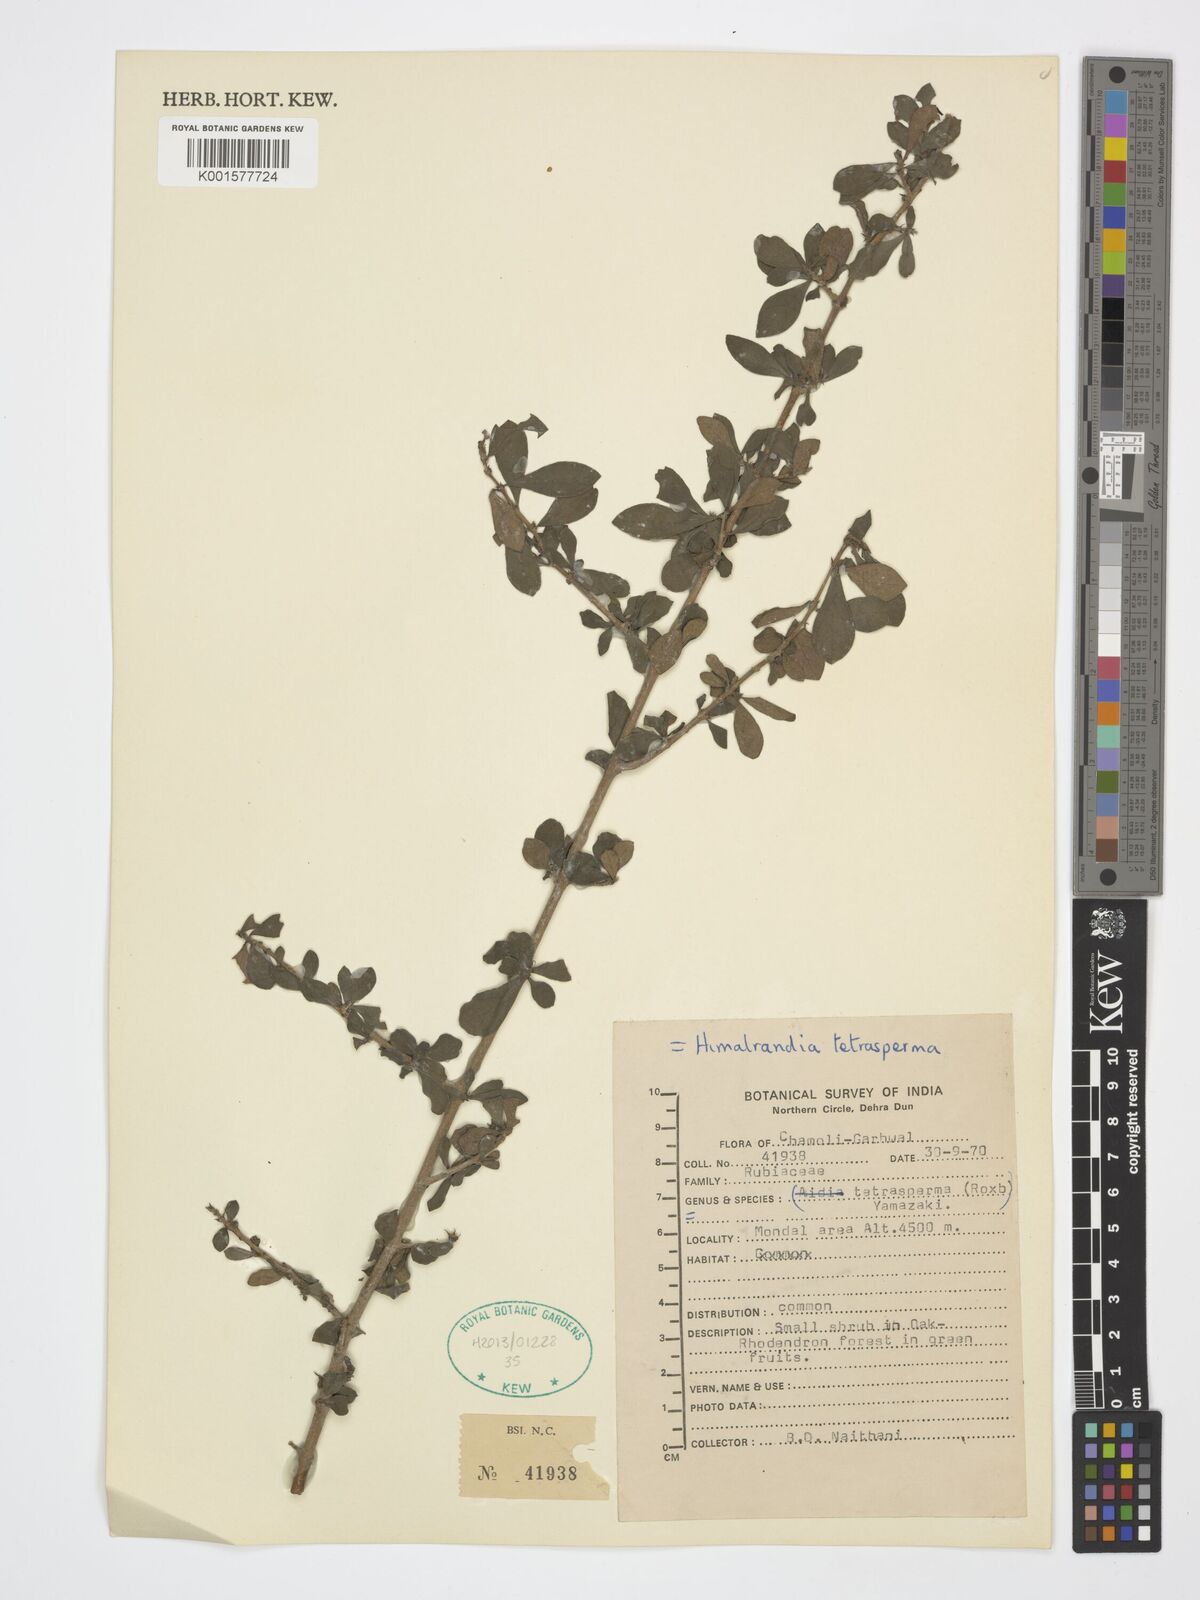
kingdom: Plantae
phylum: Tracheophyta
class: Magnoliopsida
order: Gentianales
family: Rubiaceae
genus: Himalrandia
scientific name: Himalrandia tetrasperma
